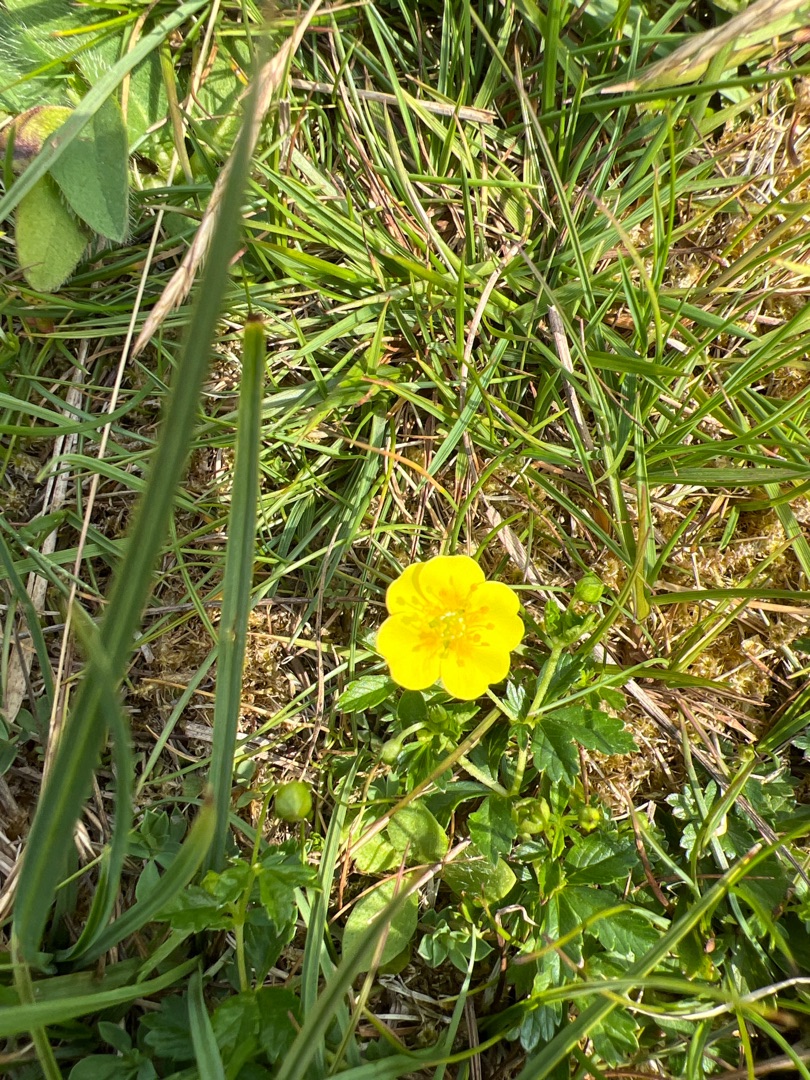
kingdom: Plantae
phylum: Tracheophyta
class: Magnoliopsida
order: Rosales
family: Rosaceae
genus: Potentilla
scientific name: Potentilla erecta
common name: Tormentil
